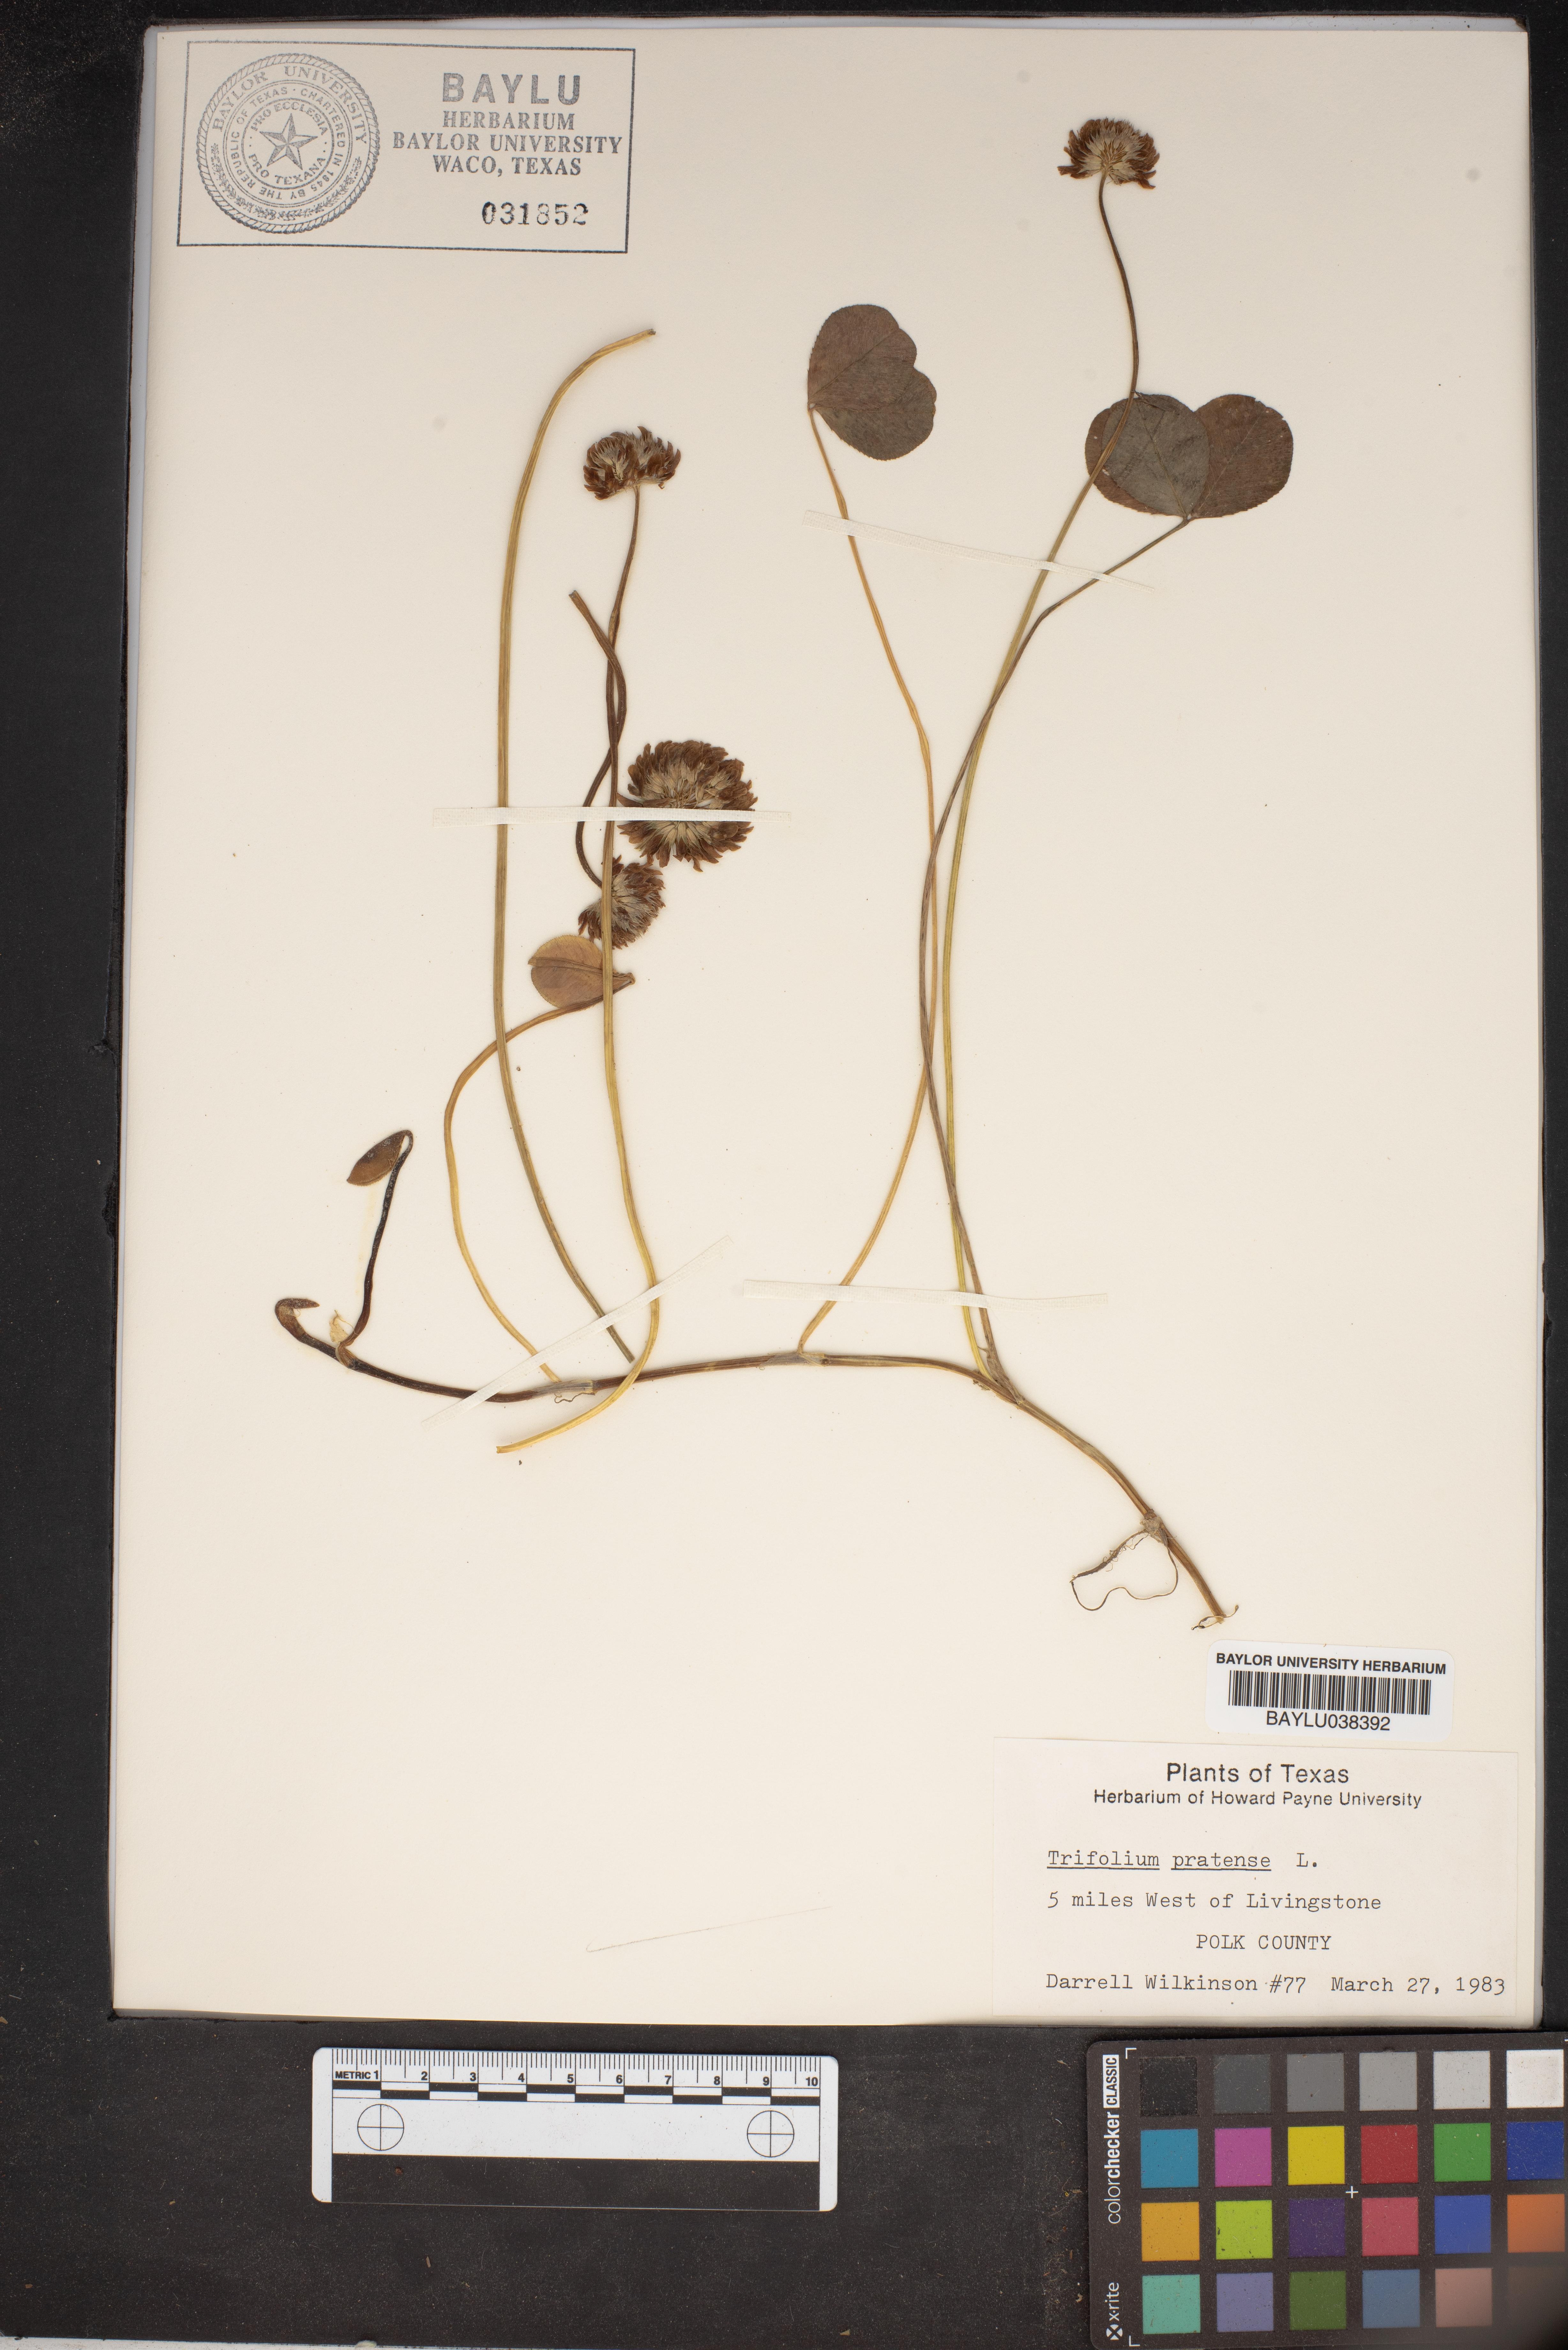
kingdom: Plantae
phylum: Tracheophyta
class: Magnoliopsida
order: Fabales
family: Fabaceae
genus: Trifolium
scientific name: Trifolium pratense
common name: Red clover
